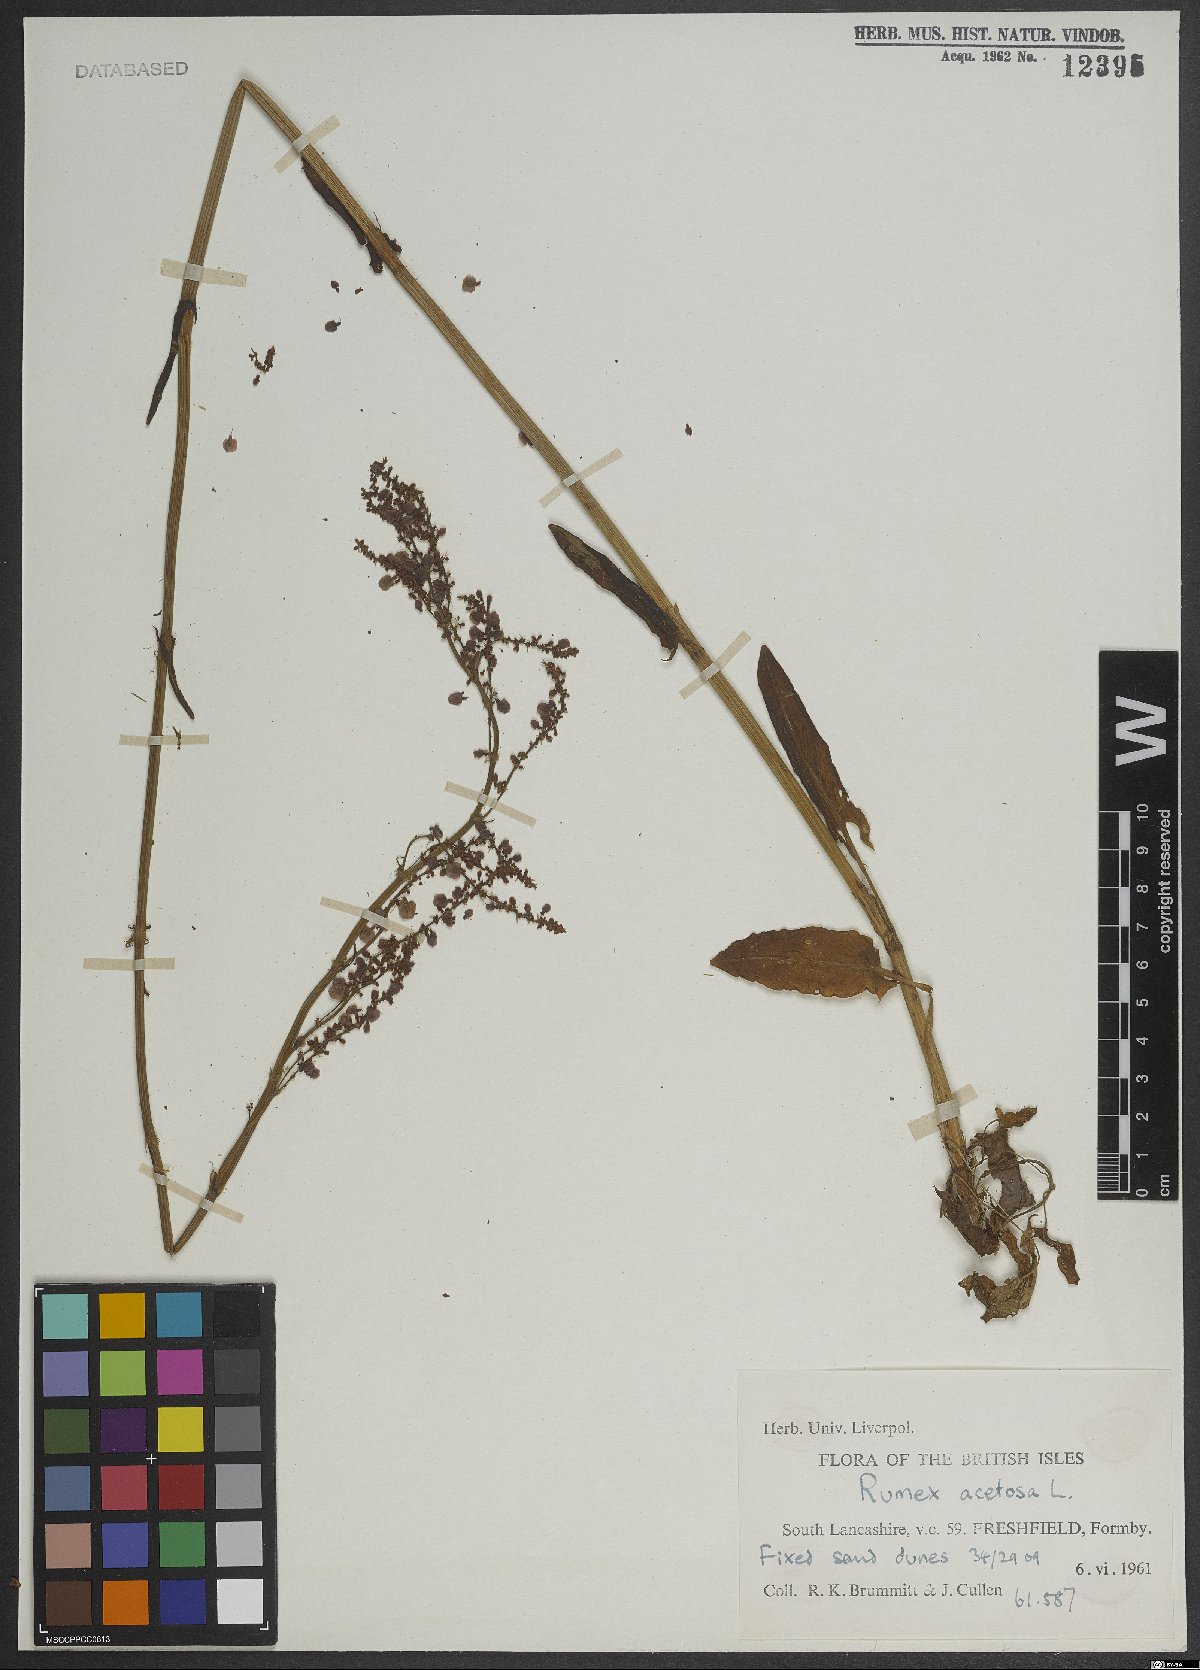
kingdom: Plantae
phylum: Tracheophyta
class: Magnoliopsida
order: Caryophyllales
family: Polygonaceae
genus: Rumex
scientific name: Rumex acetosa
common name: Garden sorrel
